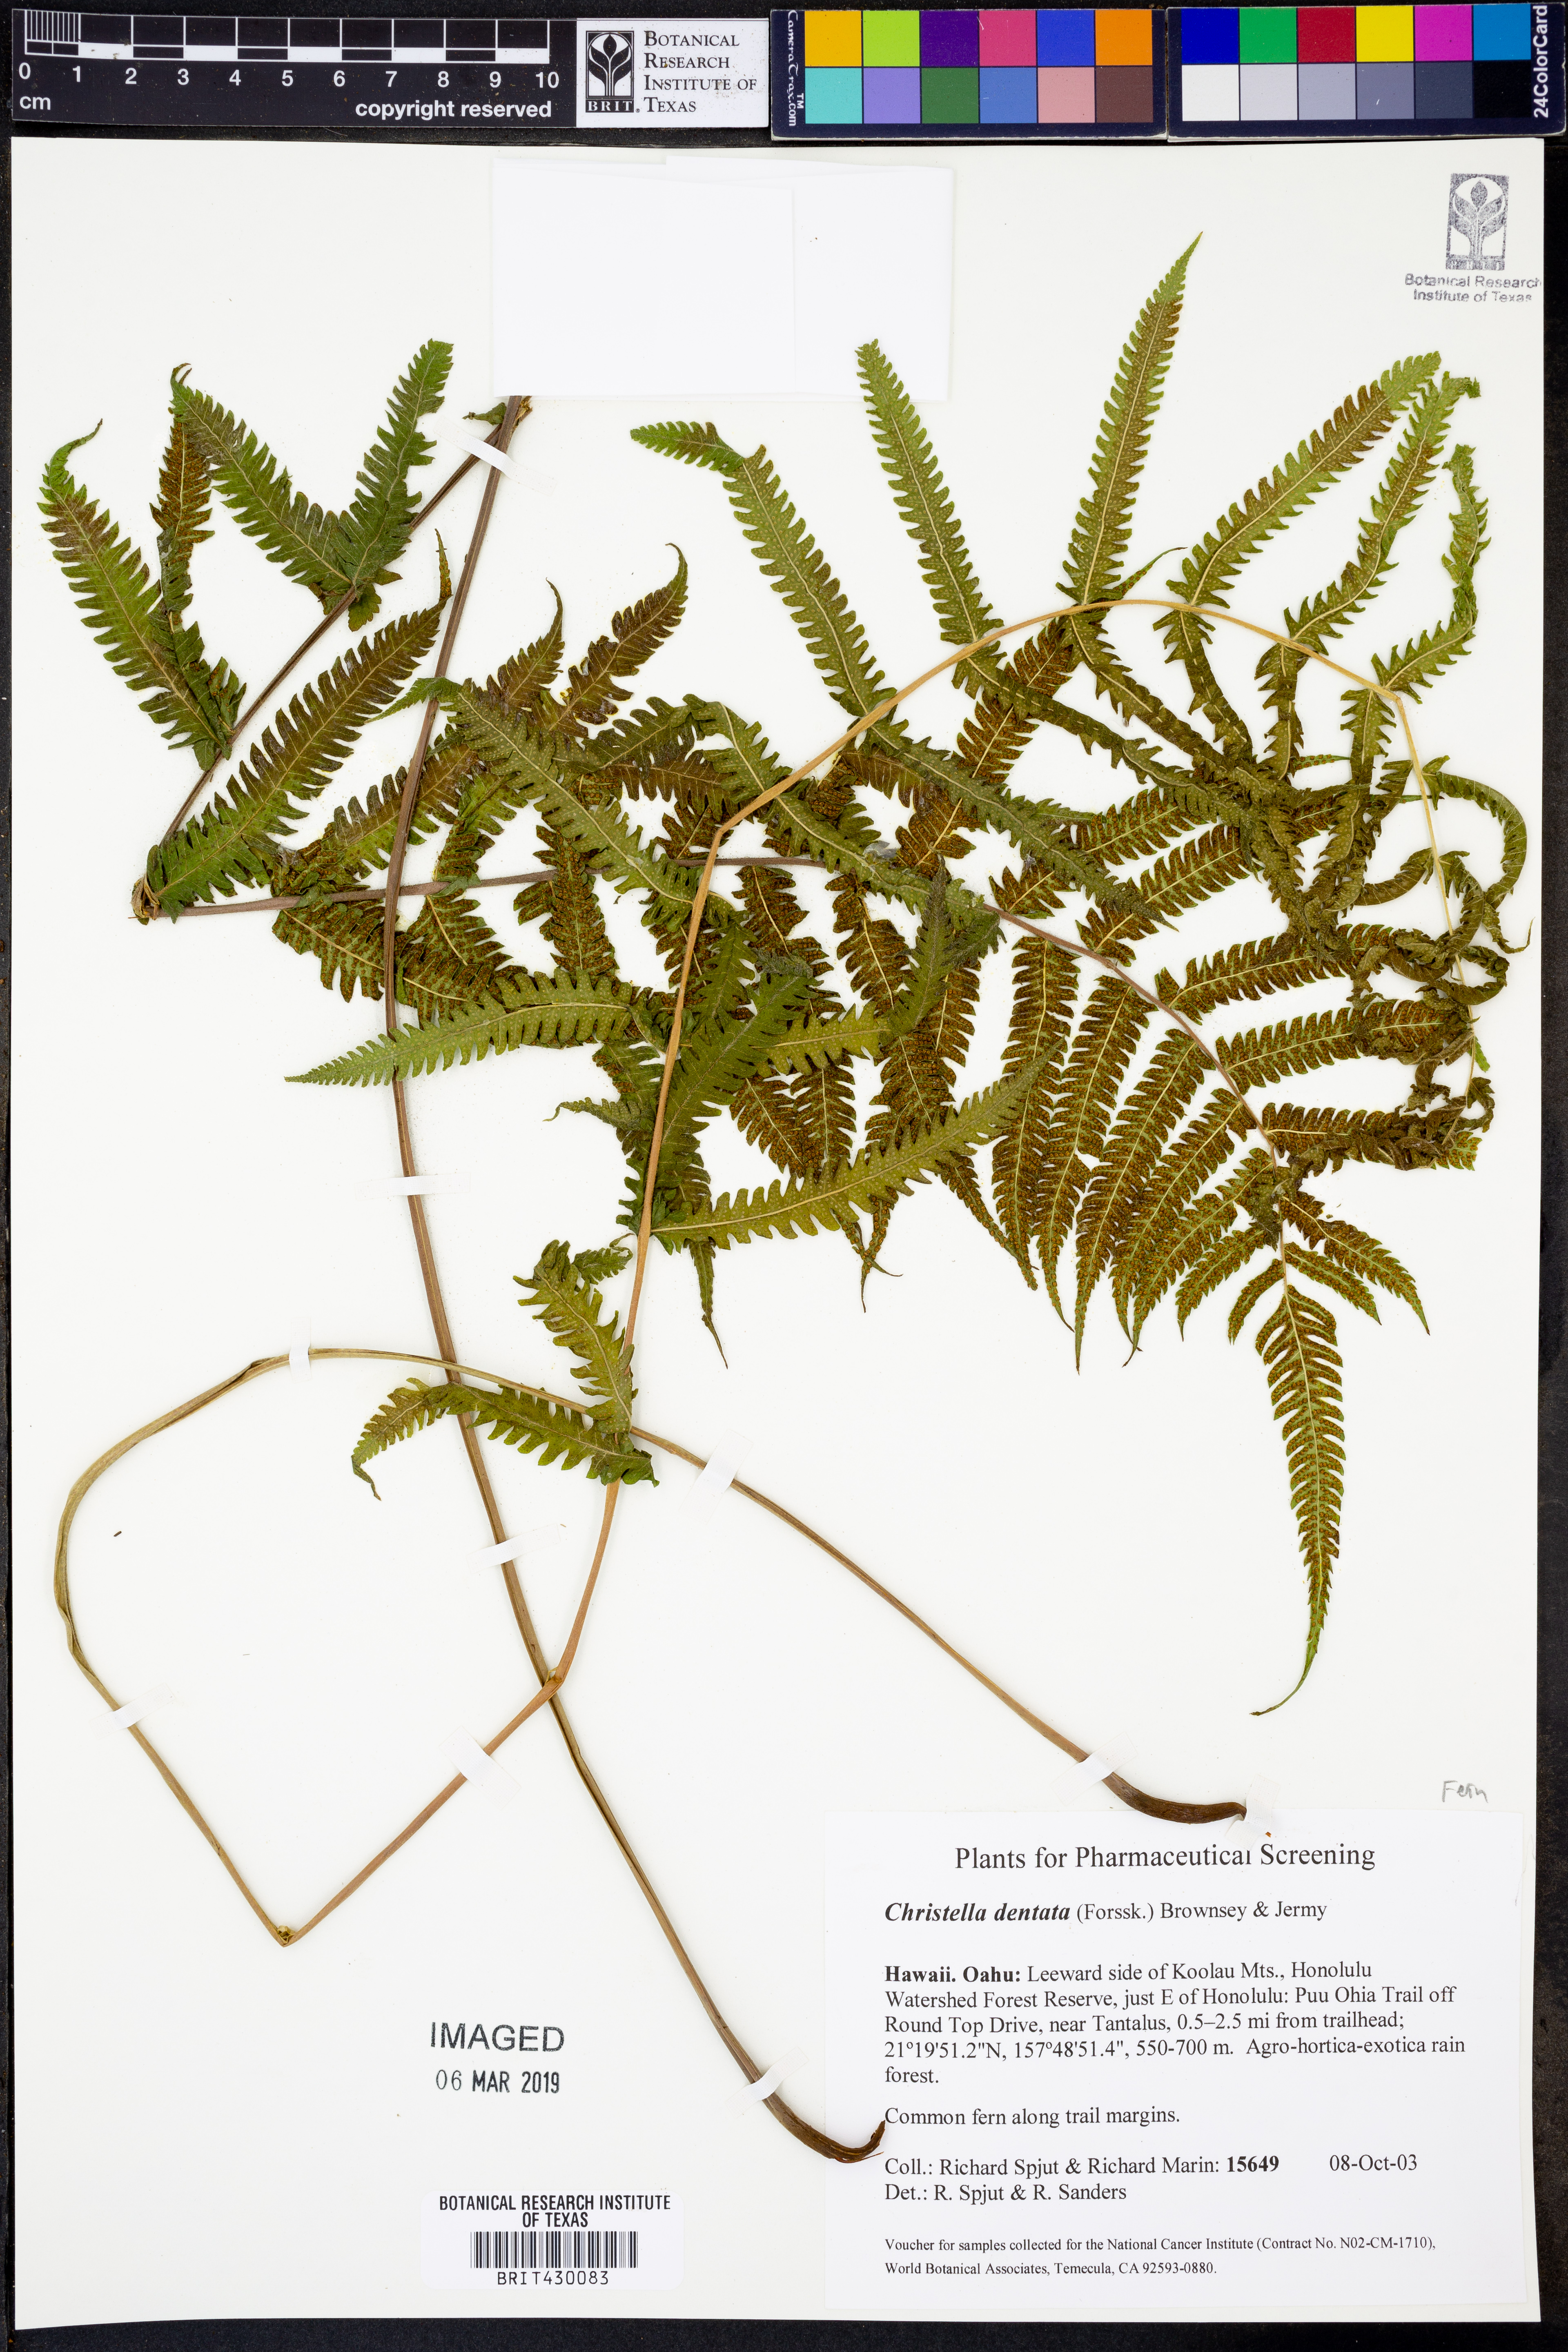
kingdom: Plantae
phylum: Tracheophyta
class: Polypodiopsida
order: Polypodiales
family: Thelypteridaceae
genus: Christella
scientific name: Christella dentata
